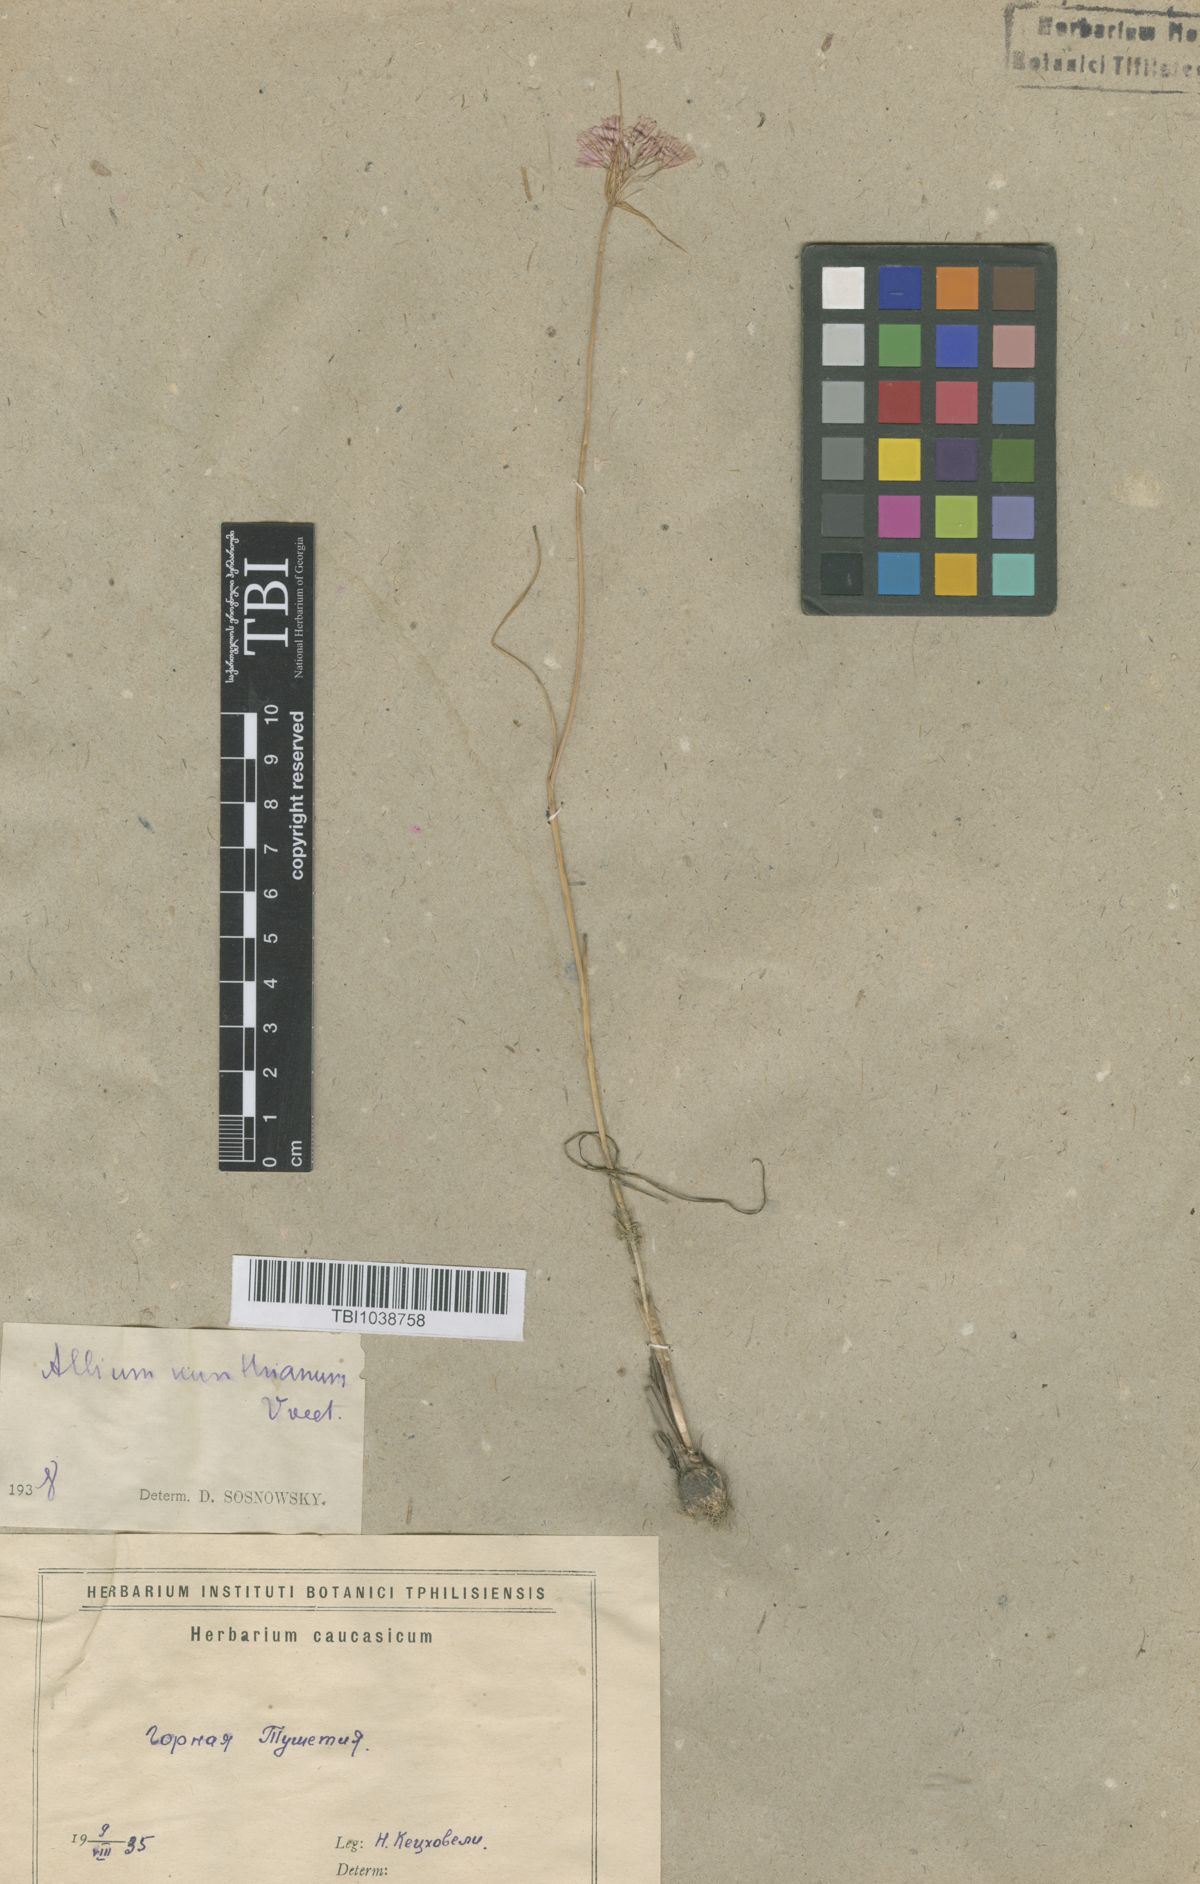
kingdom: Plantae
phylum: Tracheophyta
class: Liliopsida
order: Asparagales
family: Amaryllidaceae
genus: Allium
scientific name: Allium kunthianum
